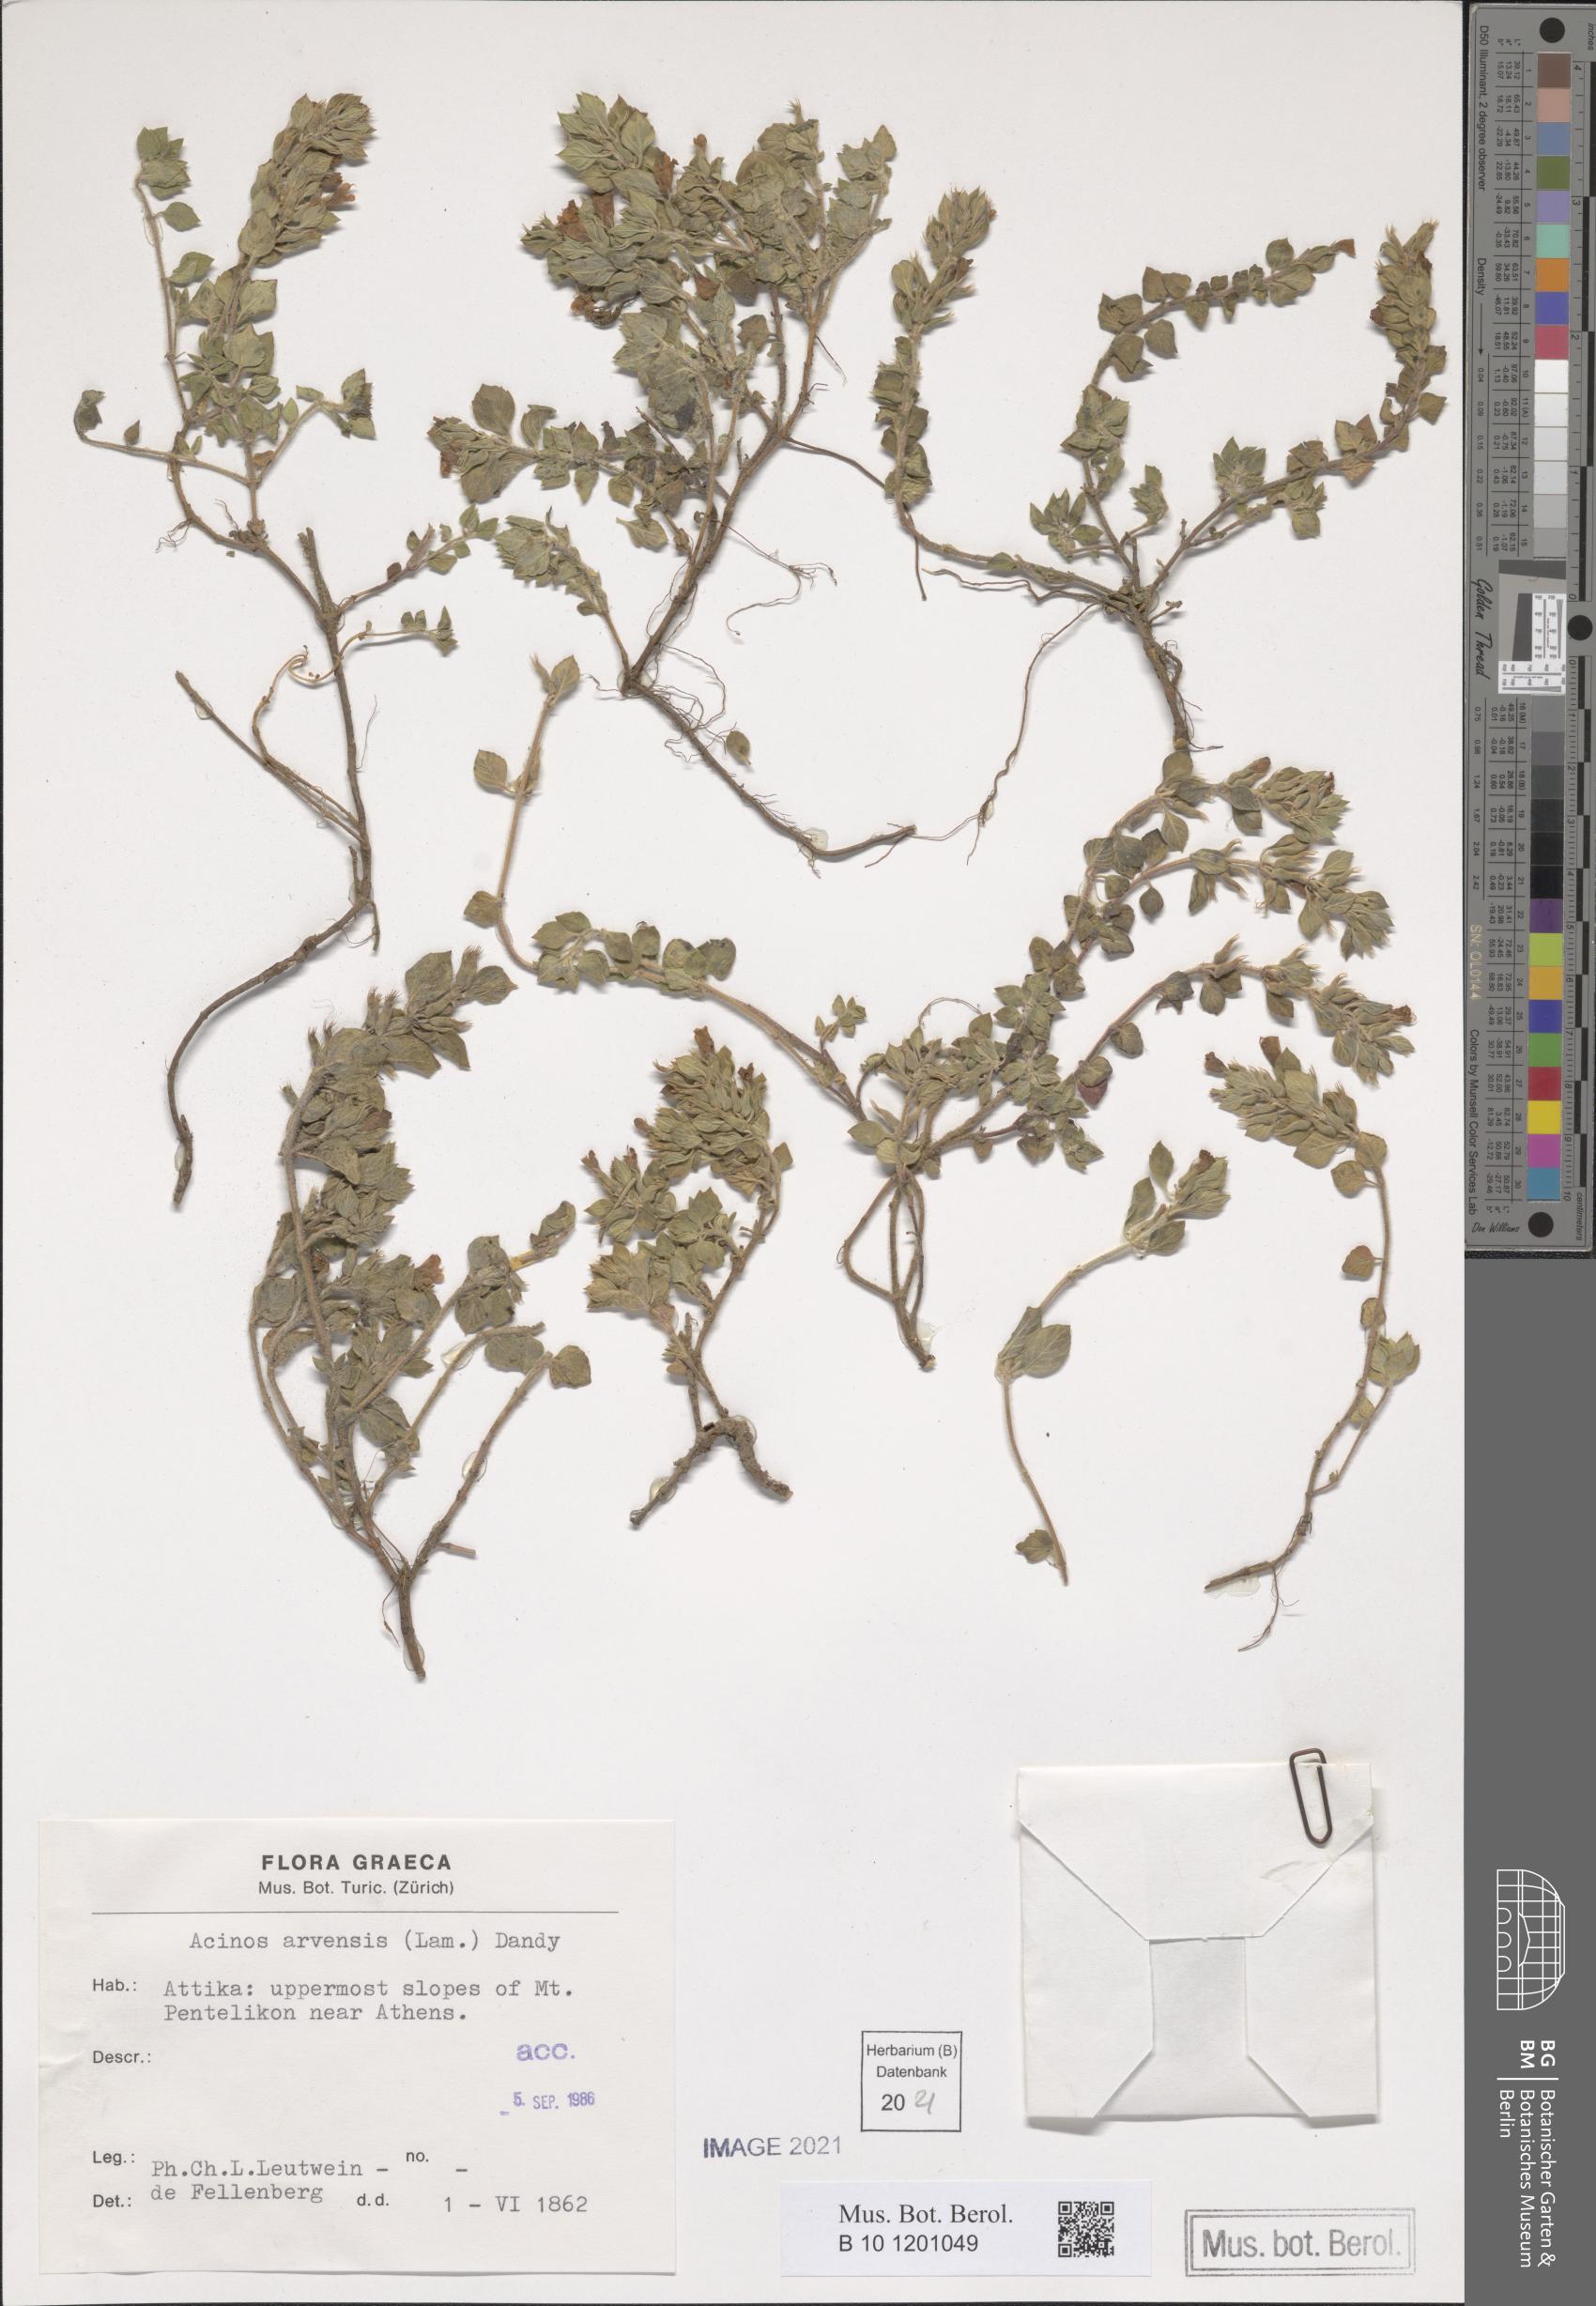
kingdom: Plantae
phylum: Tracheophyta
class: Magnoliopsida
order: Lamiales
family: Lamiaceae
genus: Clinopodium
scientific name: Clinopodium alpinum
